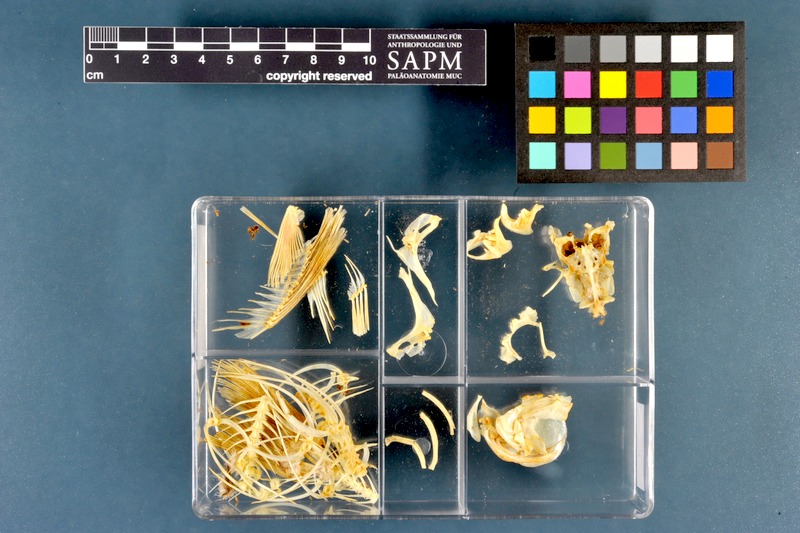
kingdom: Animalia
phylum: Chordata
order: Cypriniformes
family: Cyprinidae
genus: Rutilus
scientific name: Rutilus rutilus
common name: Roach
